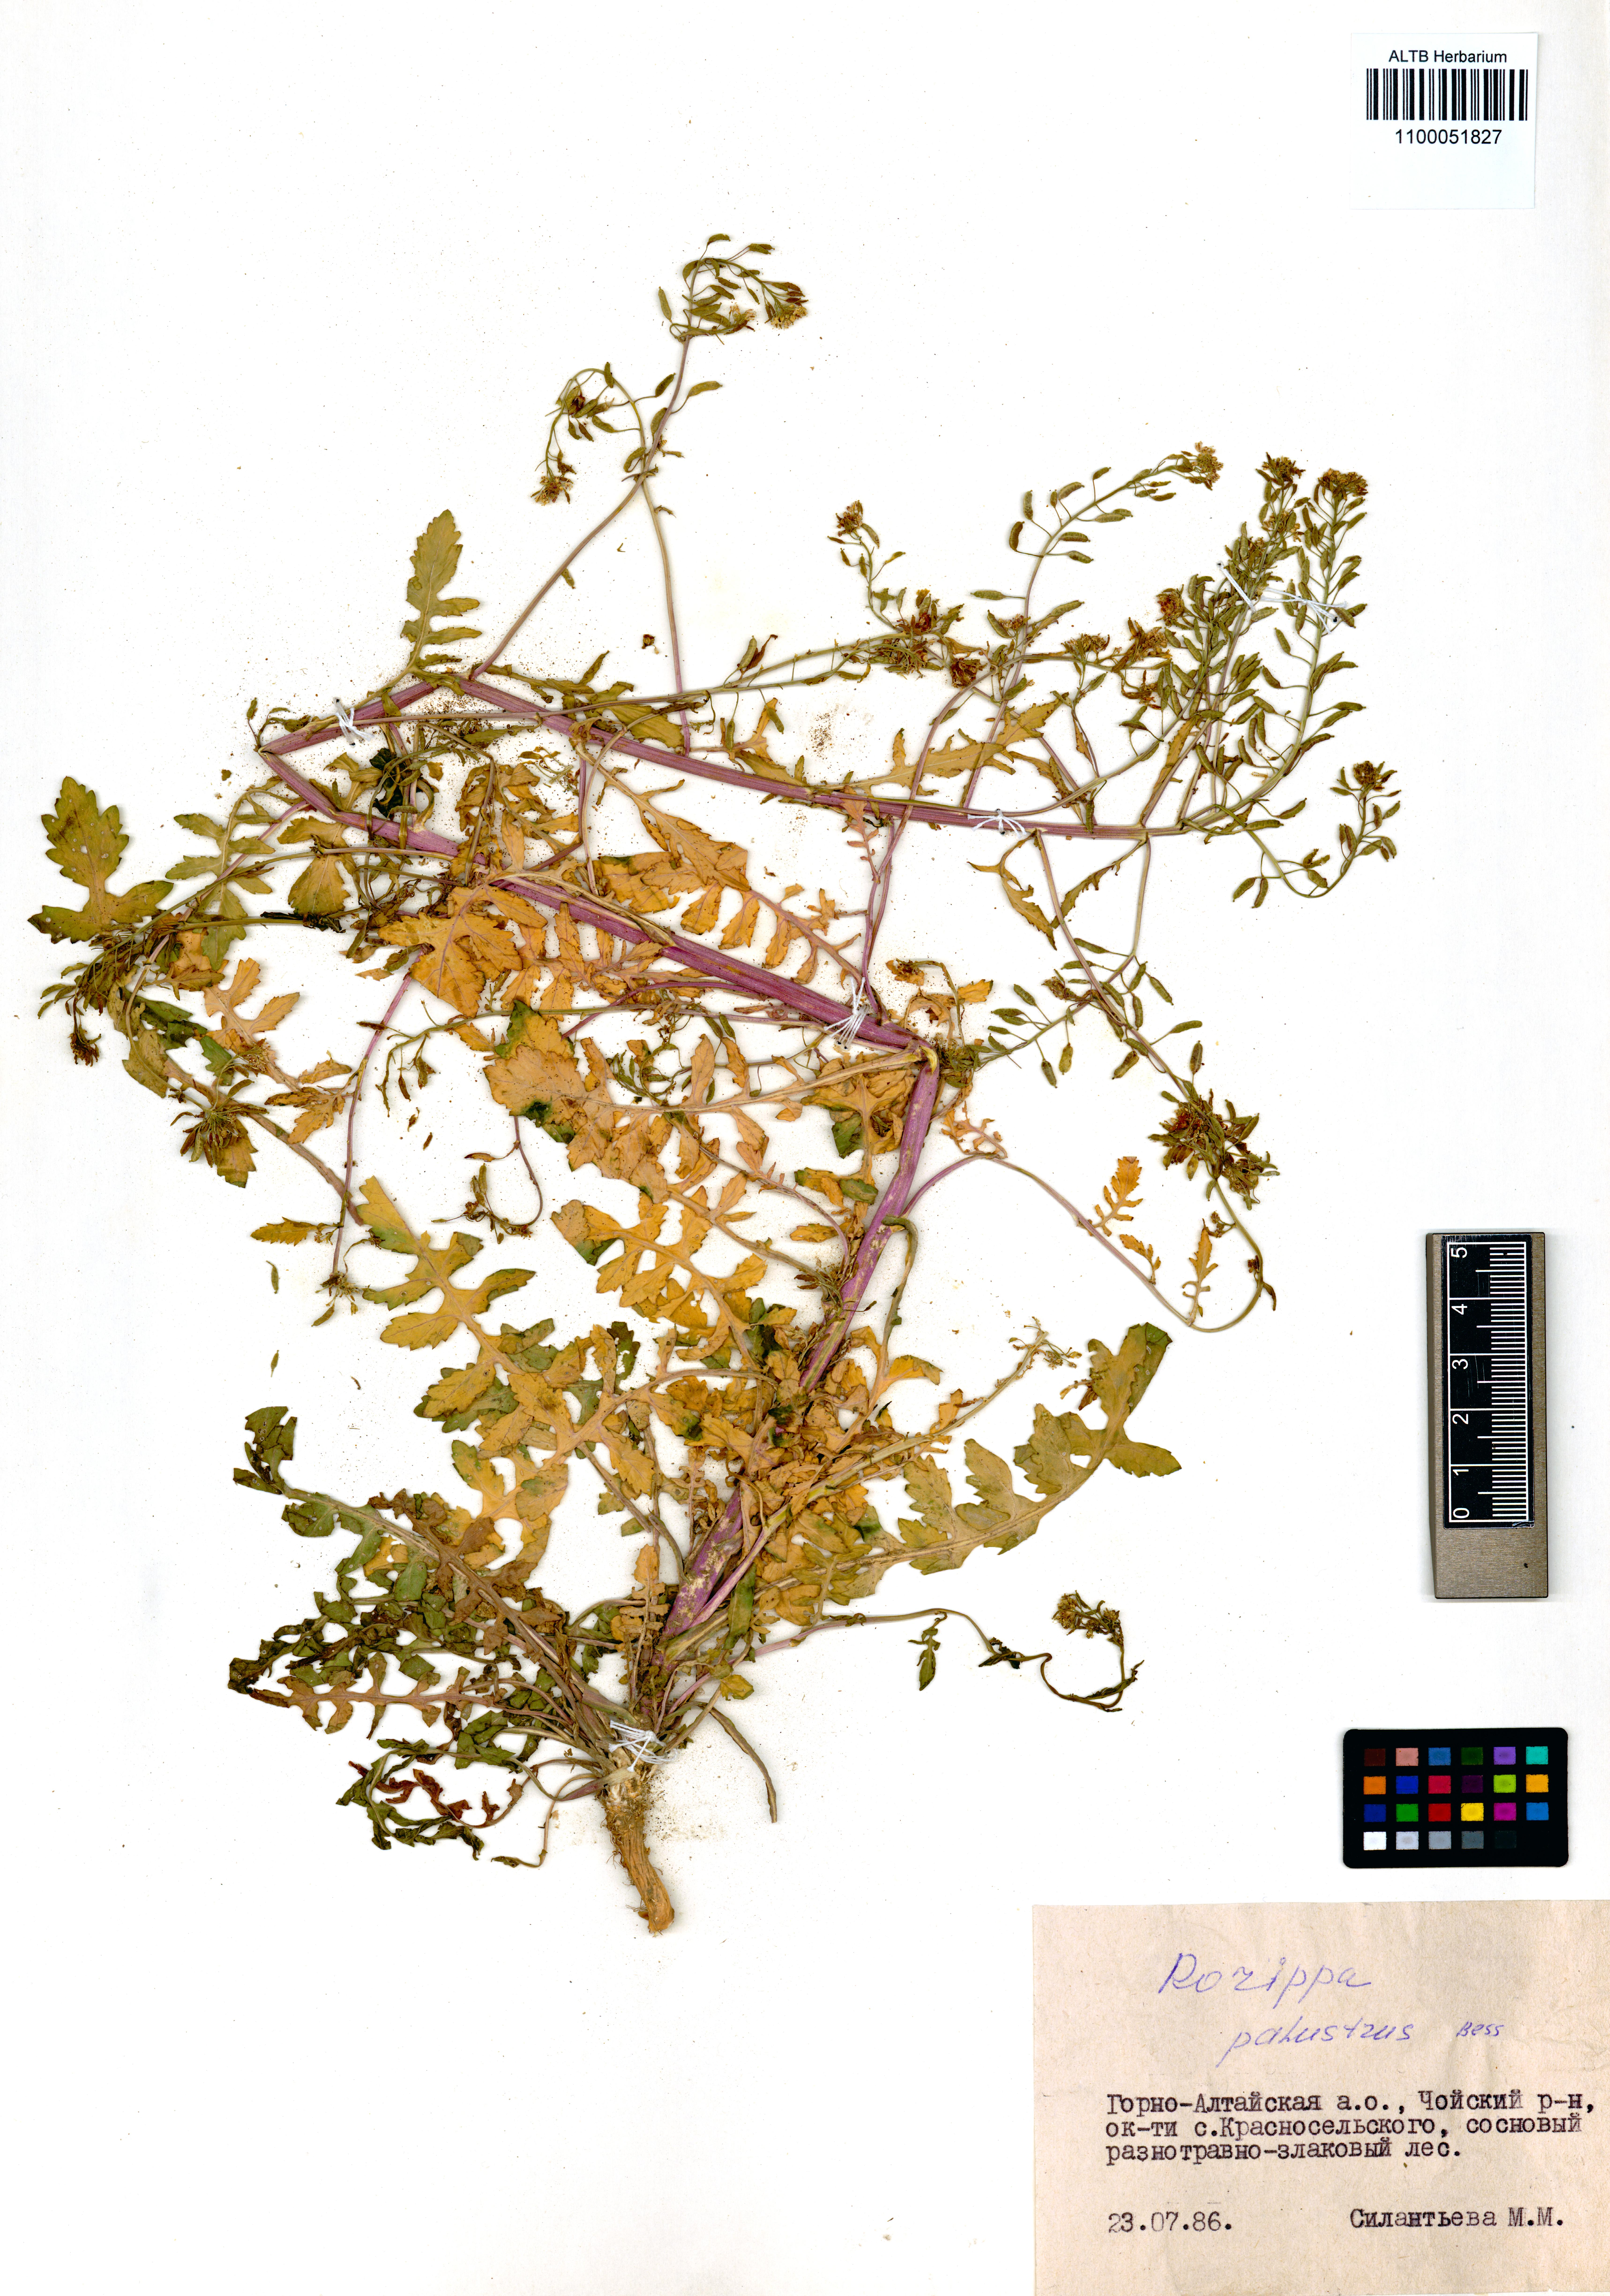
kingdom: Plantae
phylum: Tracheophyta
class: Magnoliopsida
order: Brassicales
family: Brassicaceae
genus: Rorippa
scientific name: Rorippa palustris
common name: Marsh yellow-cress
